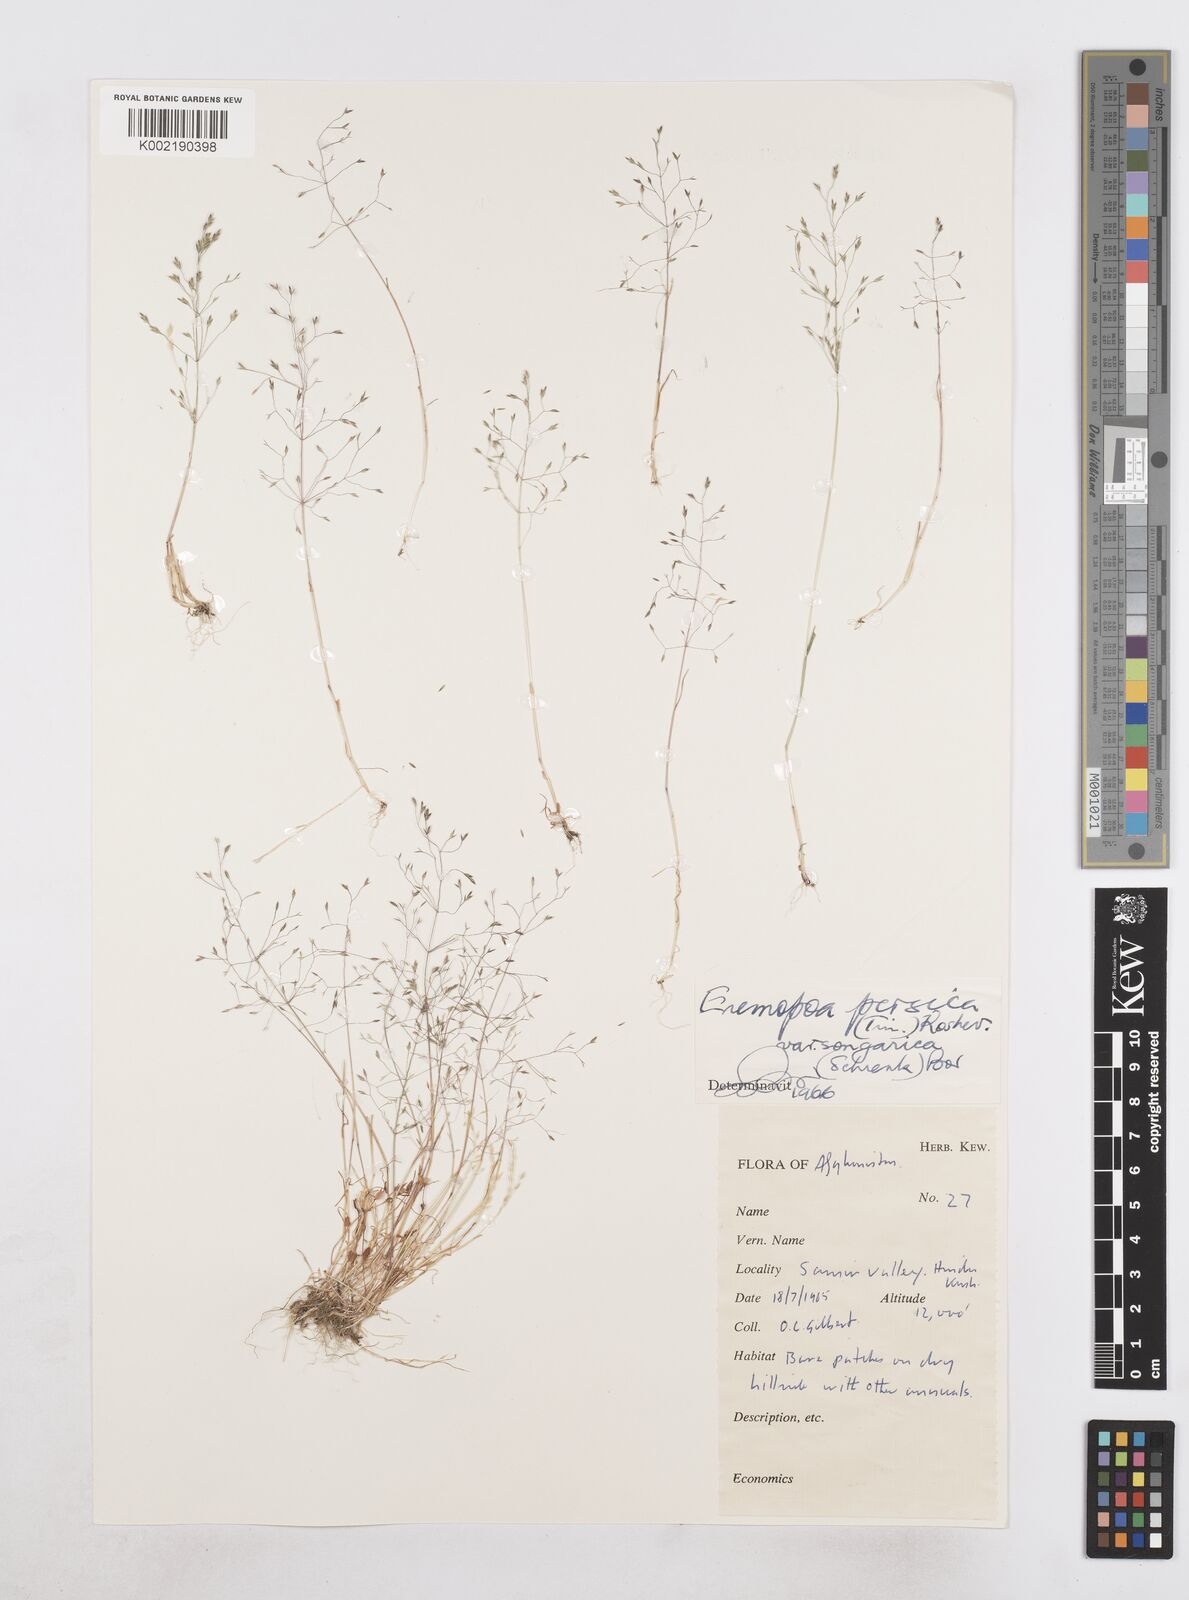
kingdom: Plantae
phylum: Tracheophyta
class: Liliopsida
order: Poales
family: Poaceae
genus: Poa
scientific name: Poa diaphora
